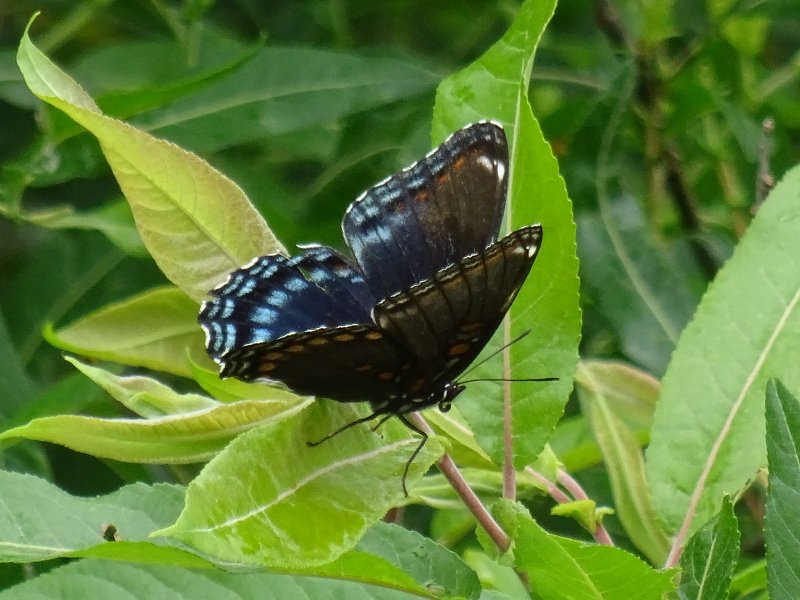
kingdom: Animalia
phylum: Arthropoda
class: Insecta
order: Lepidoptera
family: Nymphalidae
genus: Limenitis
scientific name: Limenitis astyanax
